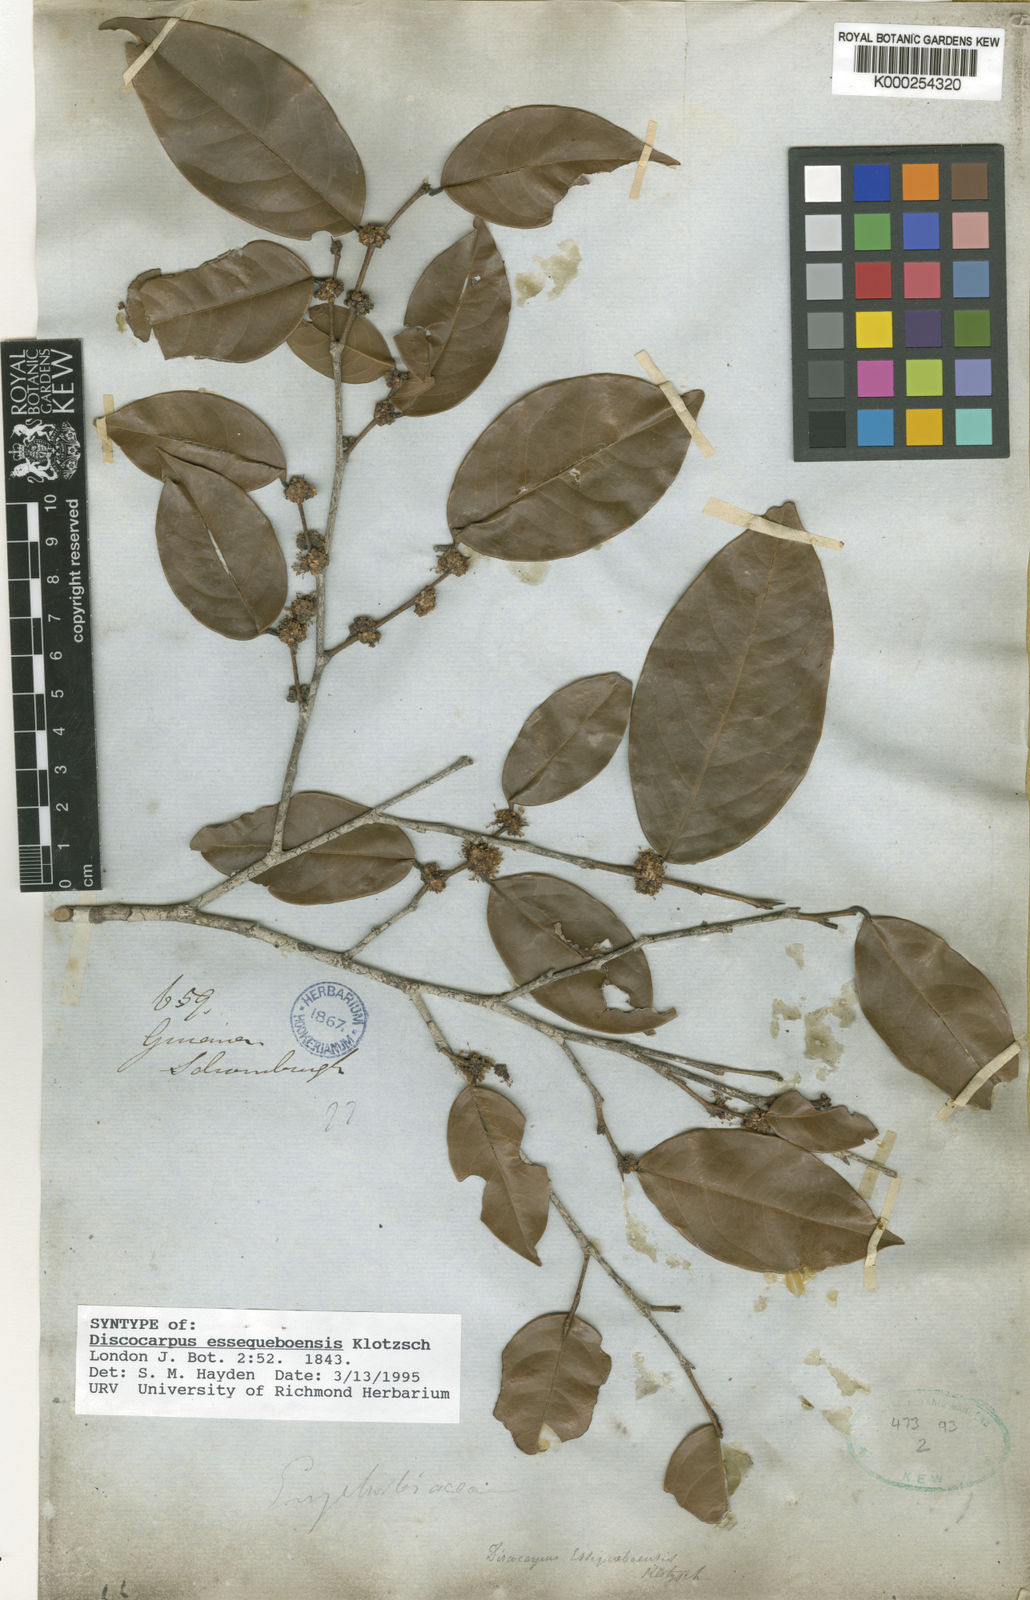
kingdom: Plantae
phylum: Tracheophyta
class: Magnoliopsida
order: Malpighiales
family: Phyllanthaceae
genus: Discocarpus
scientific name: Discocarpus essequeboensis
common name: Sqaure-wood
